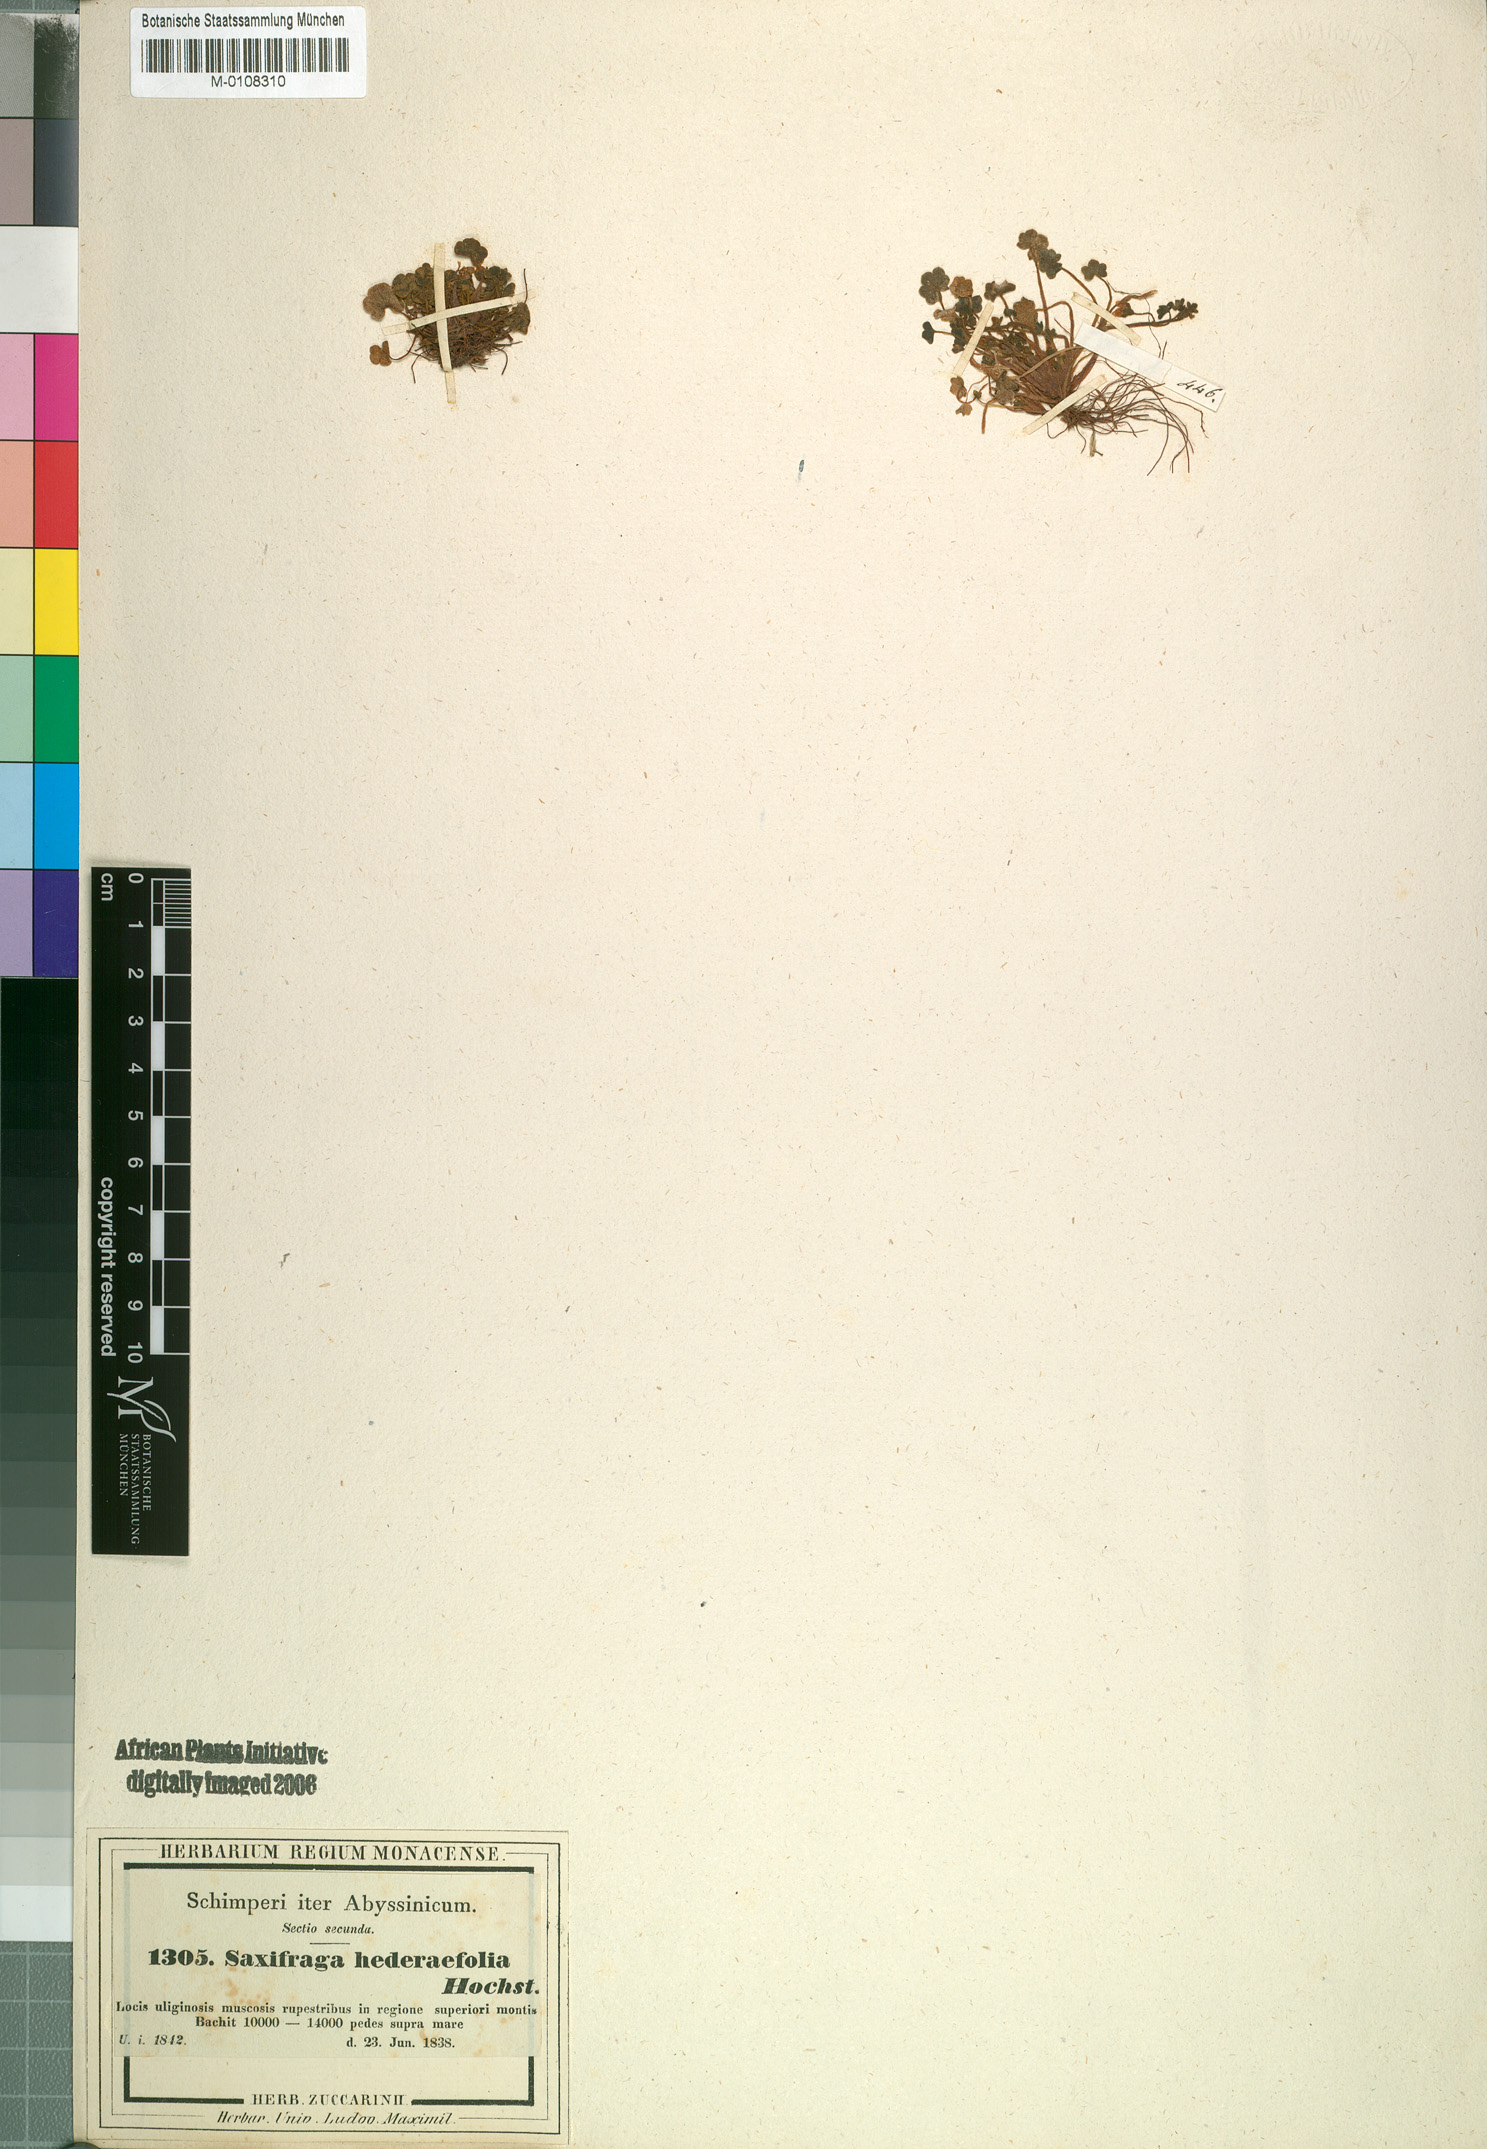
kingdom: Plantae
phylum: Tracheophyta
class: Magnoliopsida
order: Saxifragales
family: Saxifragaceae
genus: Saxifraga
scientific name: Saxifraga hederifolia
